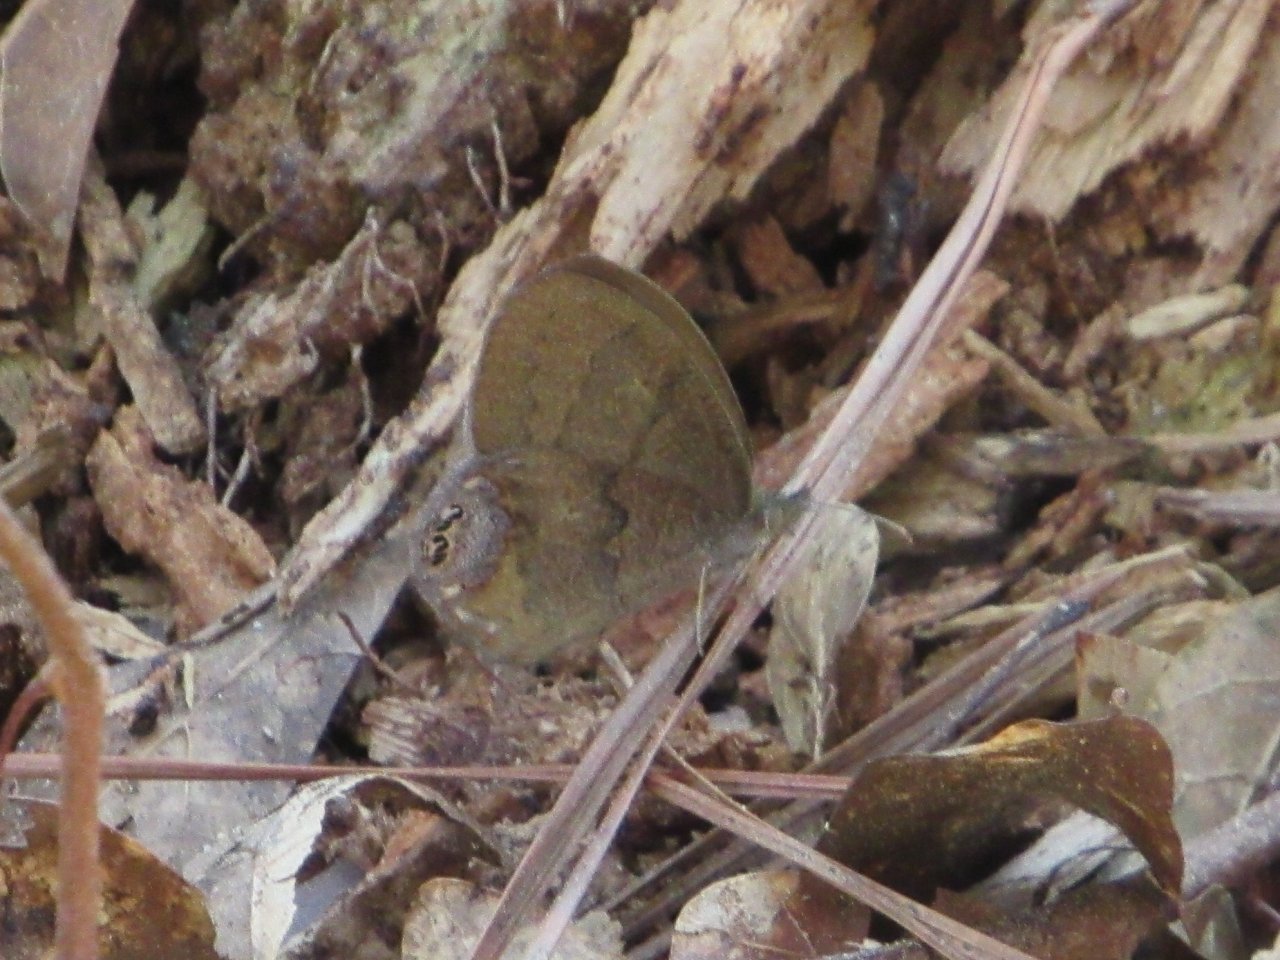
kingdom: Animalia
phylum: Arthropoda
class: Insecta
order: Lepidoptera
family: Nymphalidae
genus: Euptychia
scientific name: Euptychia cornelius
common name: Gemmed Satyr
